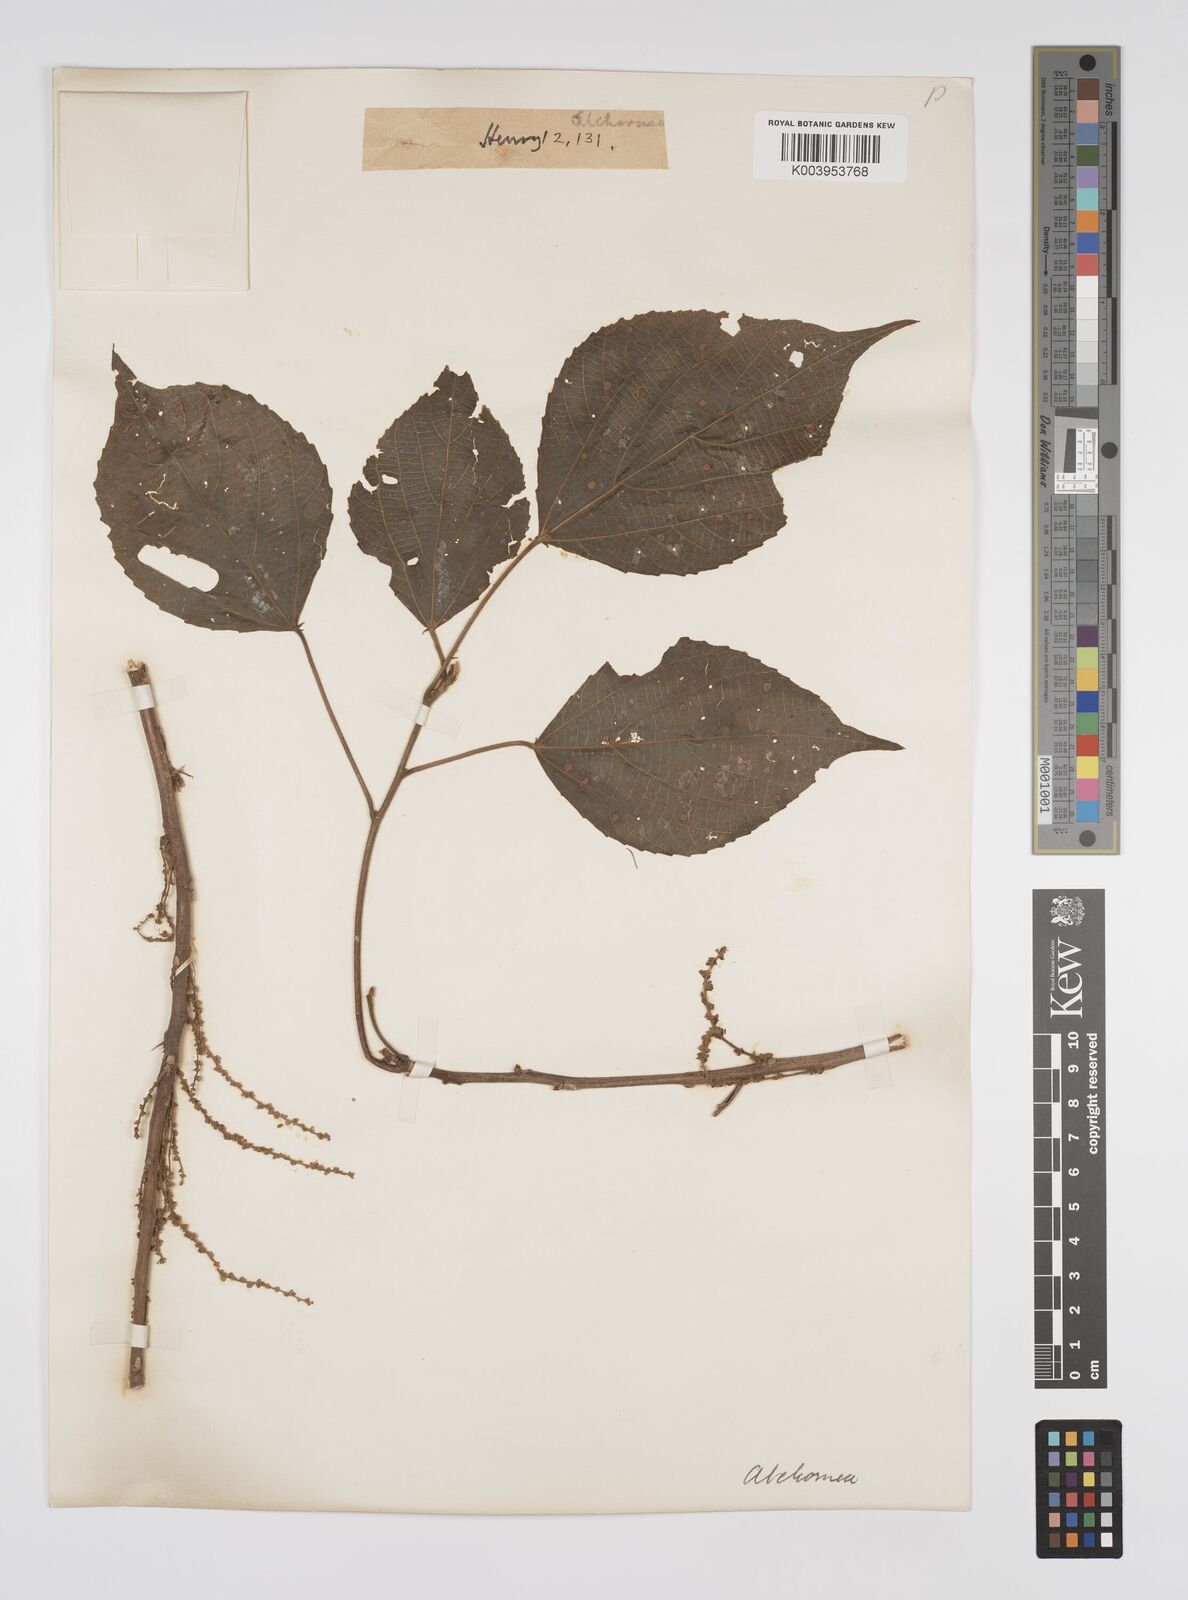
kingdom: Plantae
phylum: Tracheophyta
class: Magnoliopsida
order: Malpighiales
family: Euphorbiaceae
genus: Alchornea
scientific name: Alchornea tiliifolia
